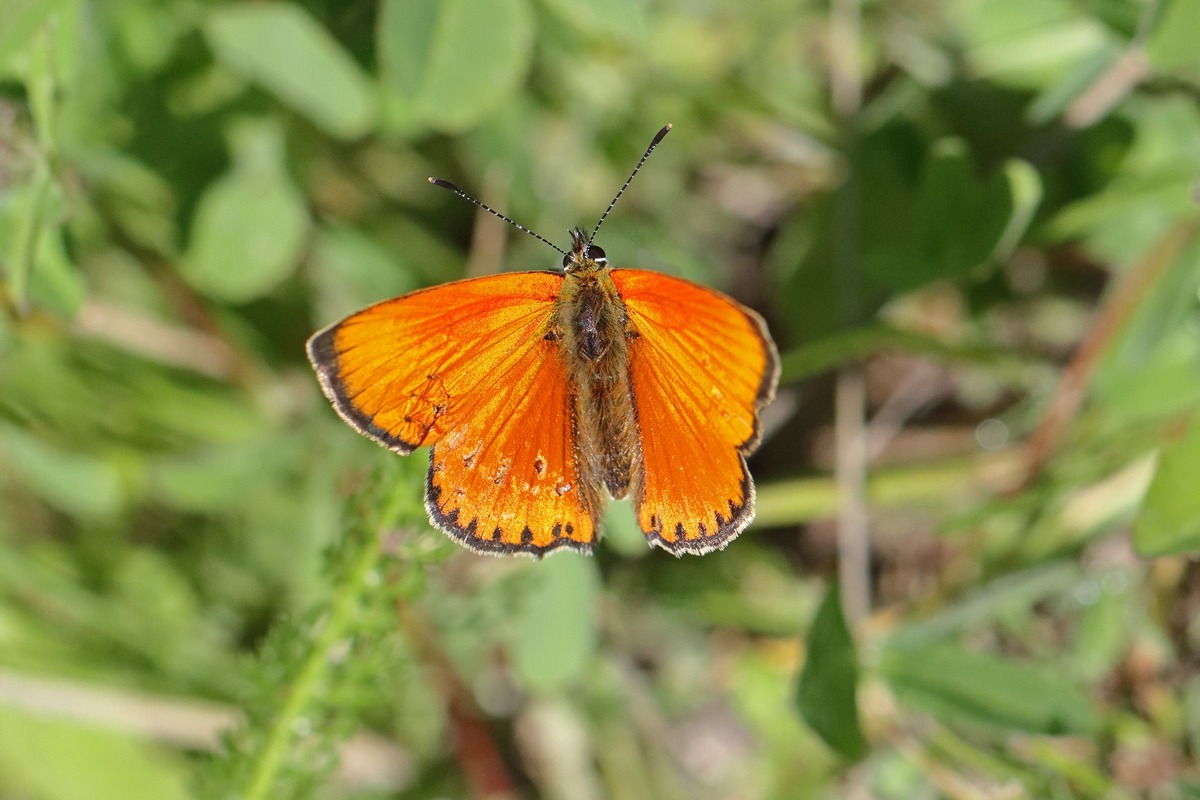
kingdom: Animalia
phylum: Arthropoda
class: Insecta
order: Lepidoptera
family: Lycaenidae
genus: Lycaena
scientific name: Lycaena virgaureae
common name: Dukatsommerfugl
